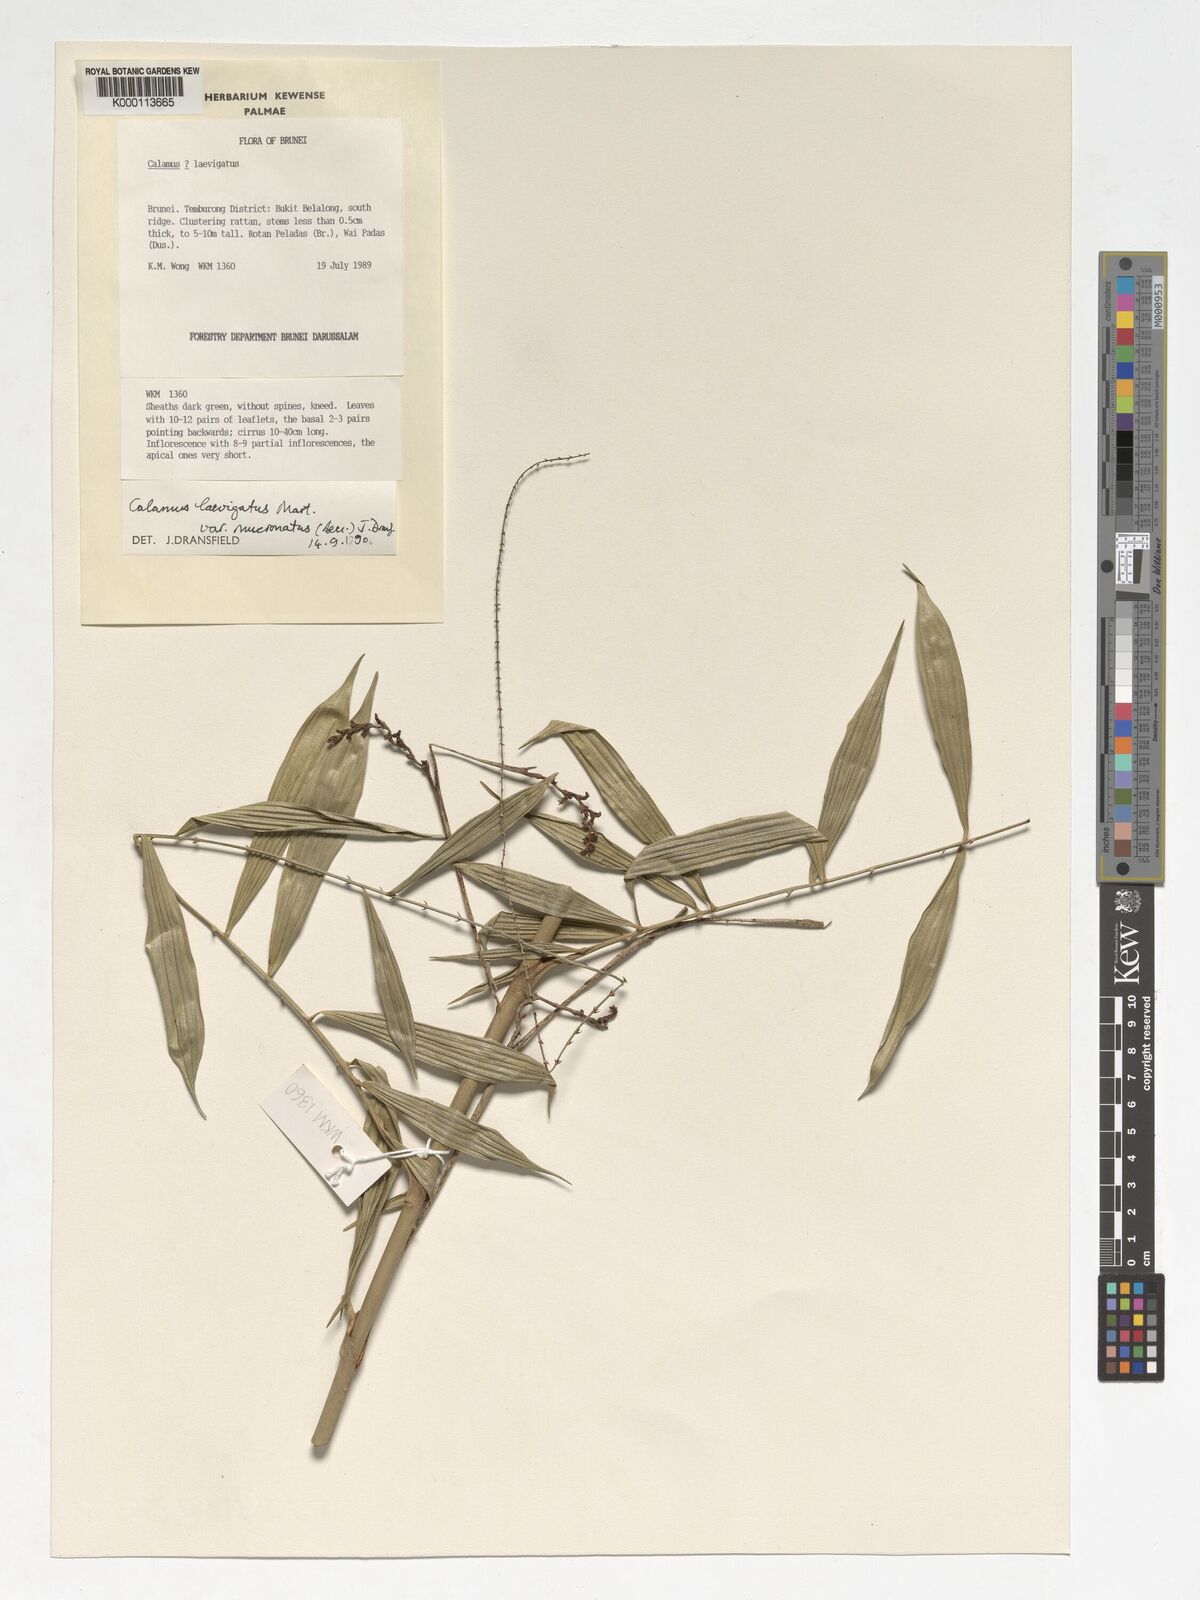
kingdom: Plantae
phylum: Tracheophyta
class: Liliopsida
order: Arecales
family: Arecaceae
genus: Calamus
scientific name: Calamus plicatus
